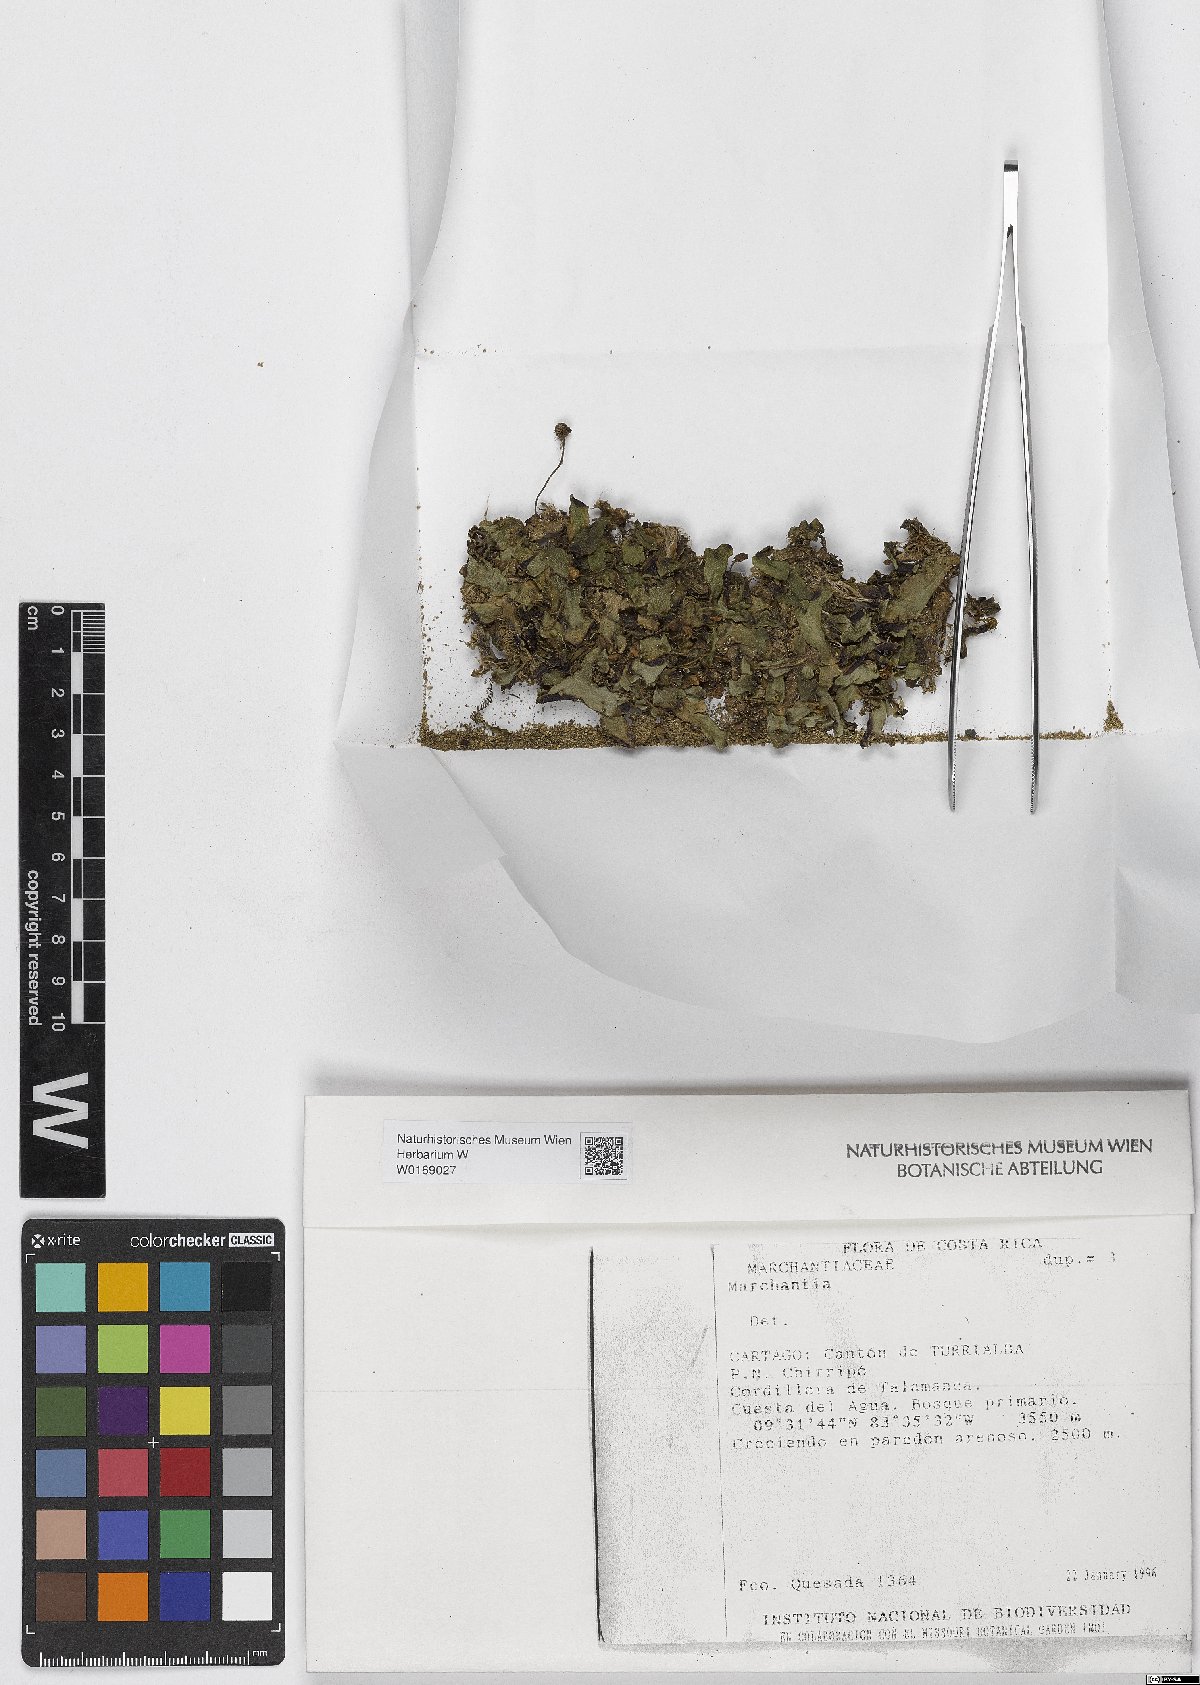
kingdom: Plantae
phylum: Marchantiophyta
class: Marchantiopsida
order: Marchantiales
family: Marchantiaceae
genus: Marchantia
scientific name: Marchantia
